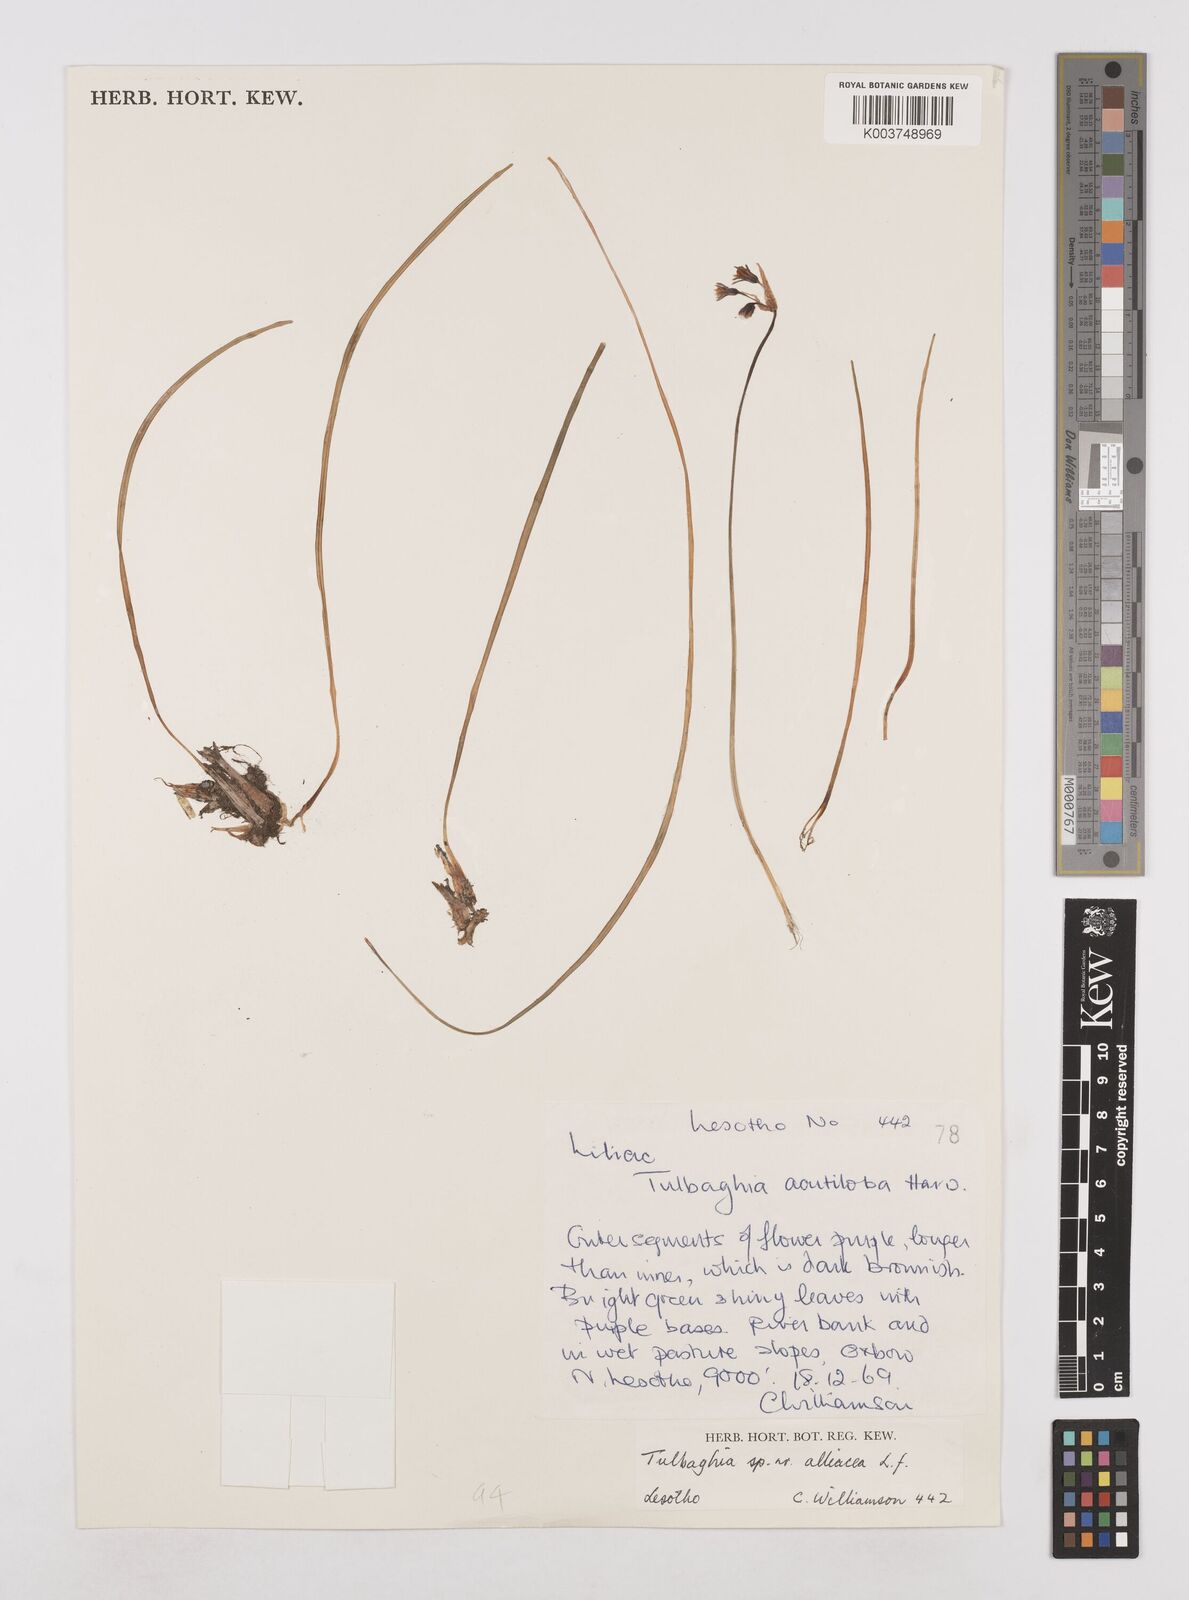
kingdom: Plantae
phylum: Tracheophyta
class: Liliopsida
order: Asparagales
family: Amaryllidaceae
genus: Tulbaghia
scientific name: Tulbaghia alliacea
